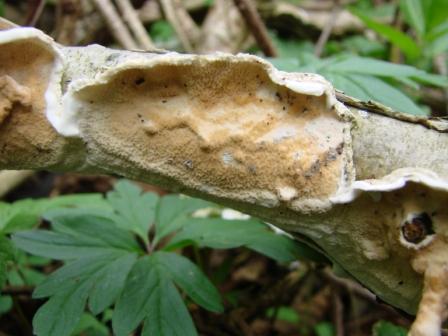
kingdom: Fungi
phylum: Basidiomycota
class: Agaricomycetes
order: Polyporales
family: Irpicaceae
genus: Byssomerulius
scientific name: Byssomerulius corium
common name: læder-åresvamp
